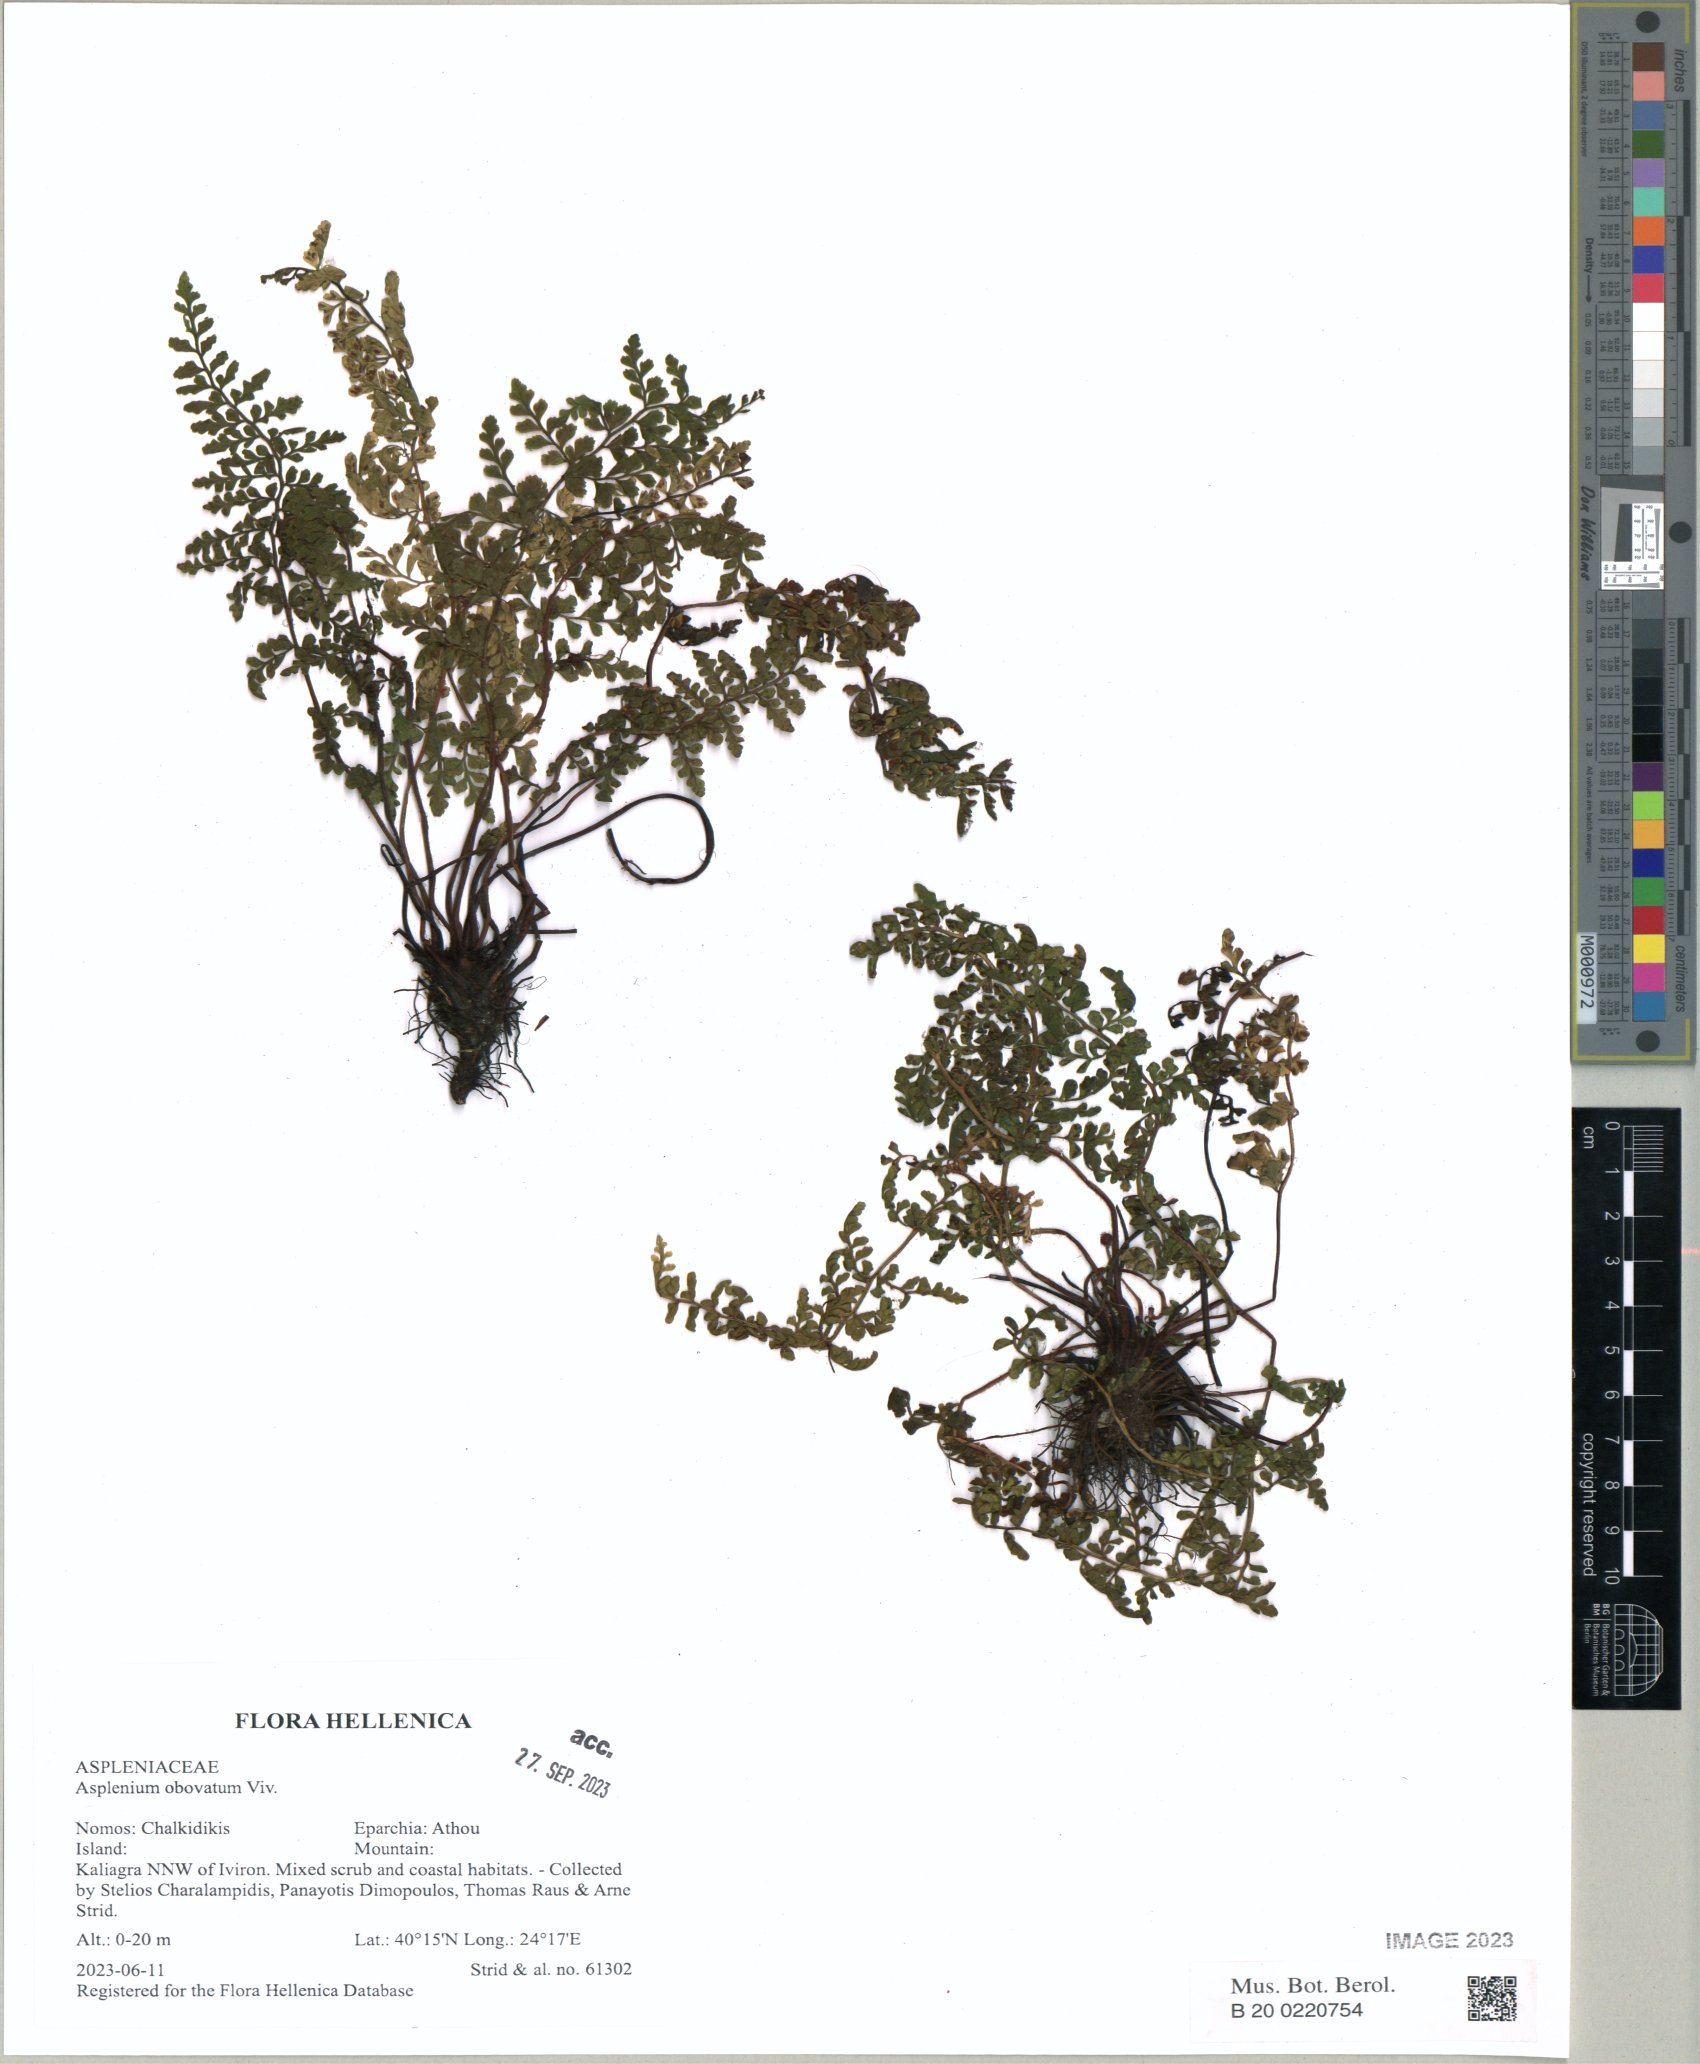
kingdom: Plantae
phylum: Tracheophyta
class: Polypodiopsida
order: Polypodiales
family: Aspleniaceae
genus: Asplenium
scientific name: Asplenium obovatum
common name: Lanceolate spleenwort
